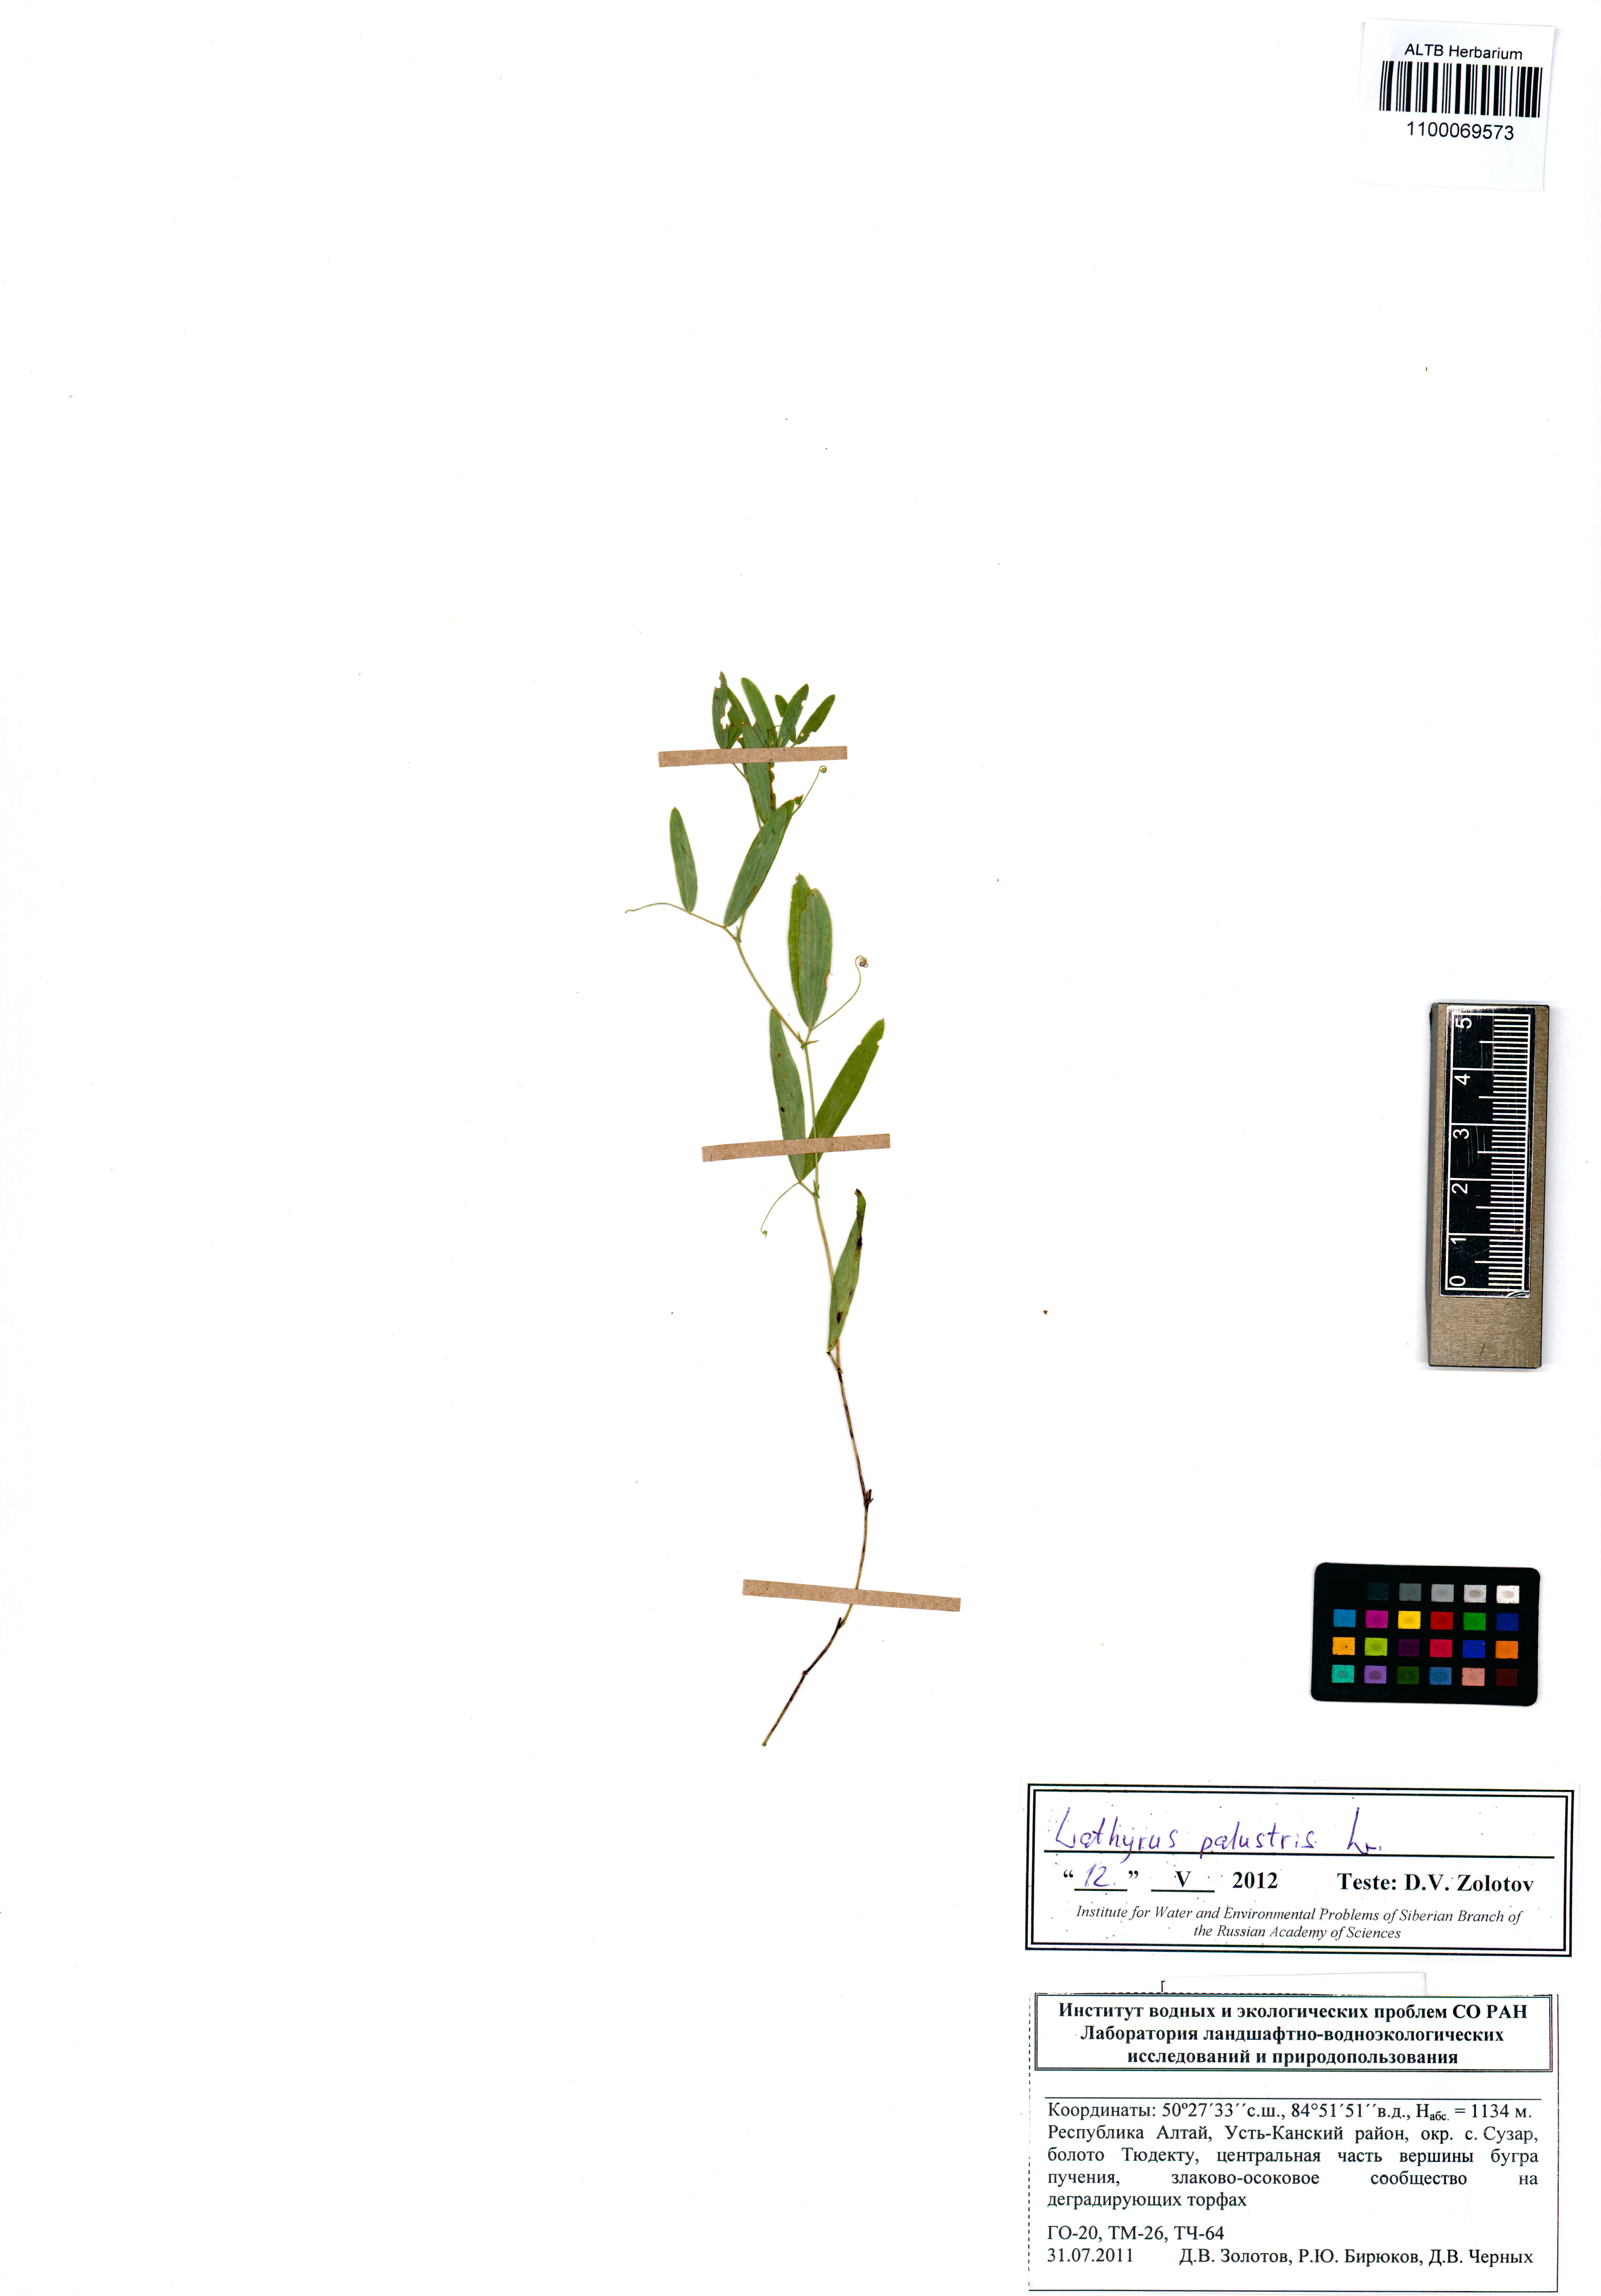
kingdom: Plantae
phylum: Tracheophyta
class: Magnoliopsida
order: Fabales
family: Fabaceae
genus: Lathyrus
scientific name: Lathyrus palustris
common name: Marsh pea
